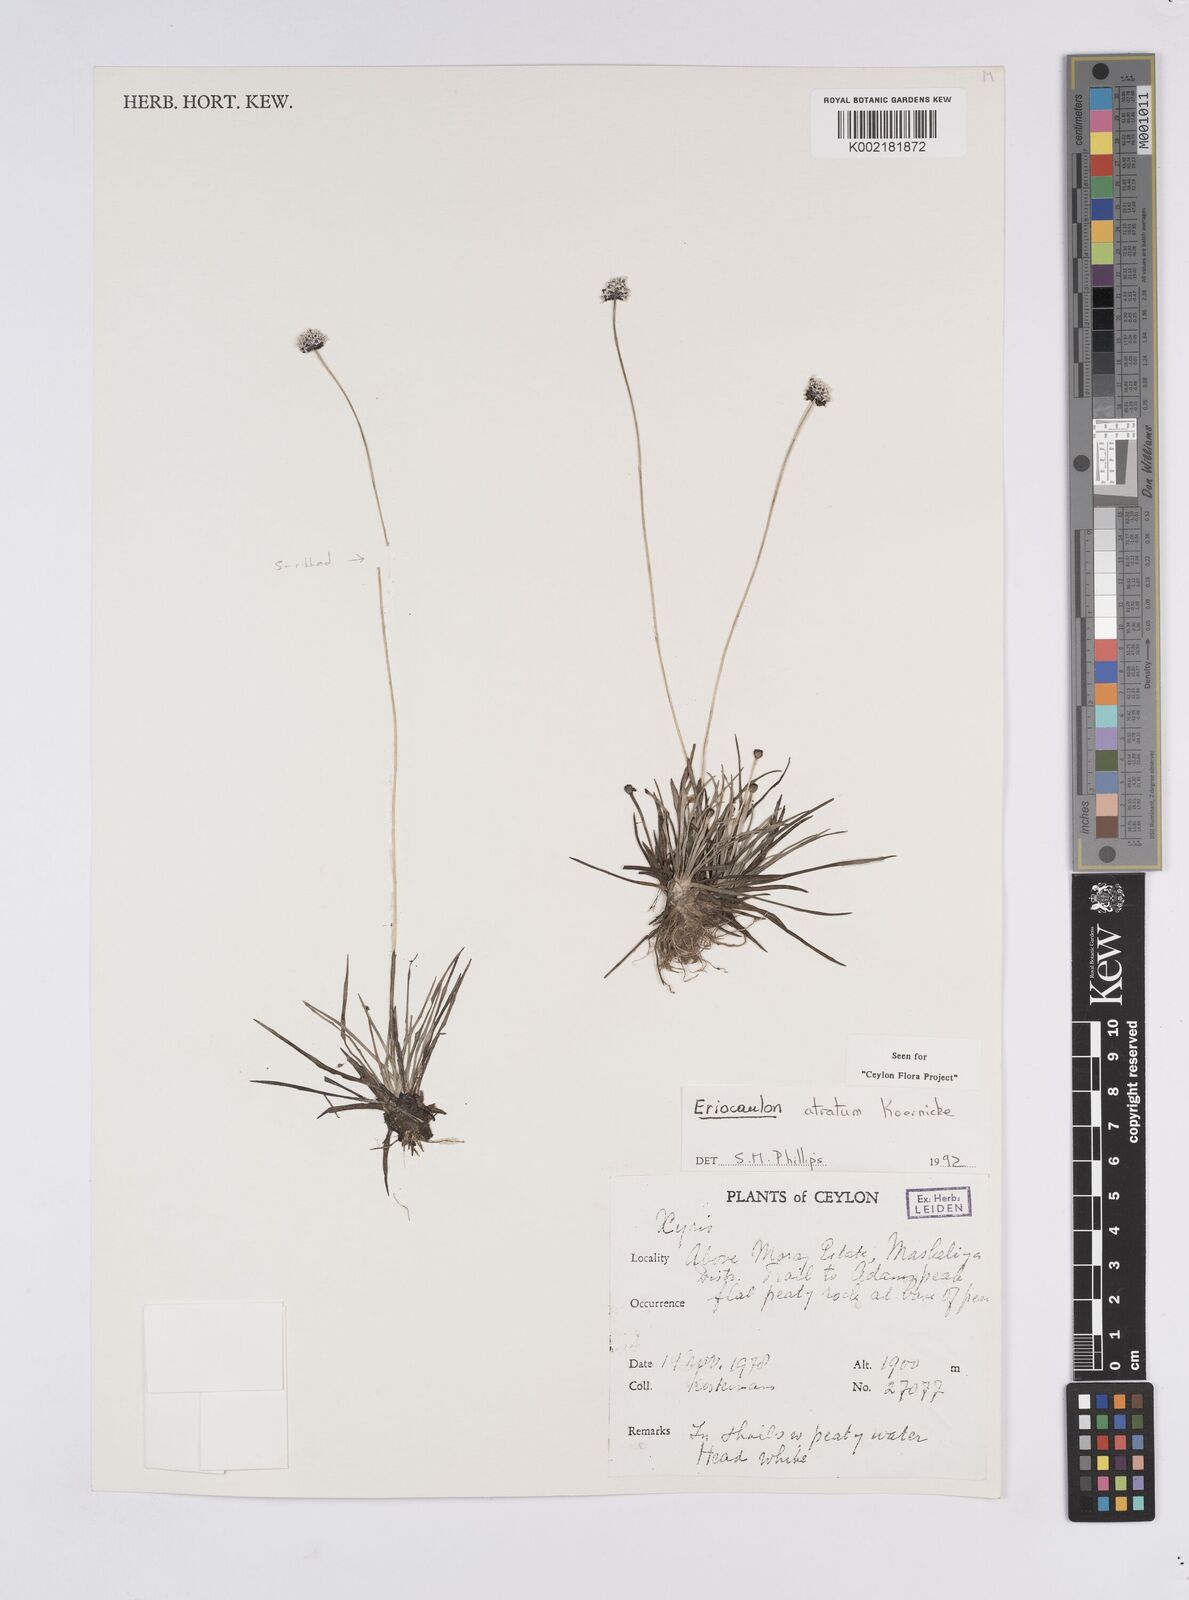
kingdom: Plantae
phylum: Tracheophyta
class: Liliopsida
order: Poales
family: Eriocaulaceae
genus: Eriocaulon
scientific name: Eriocaulon atratum
